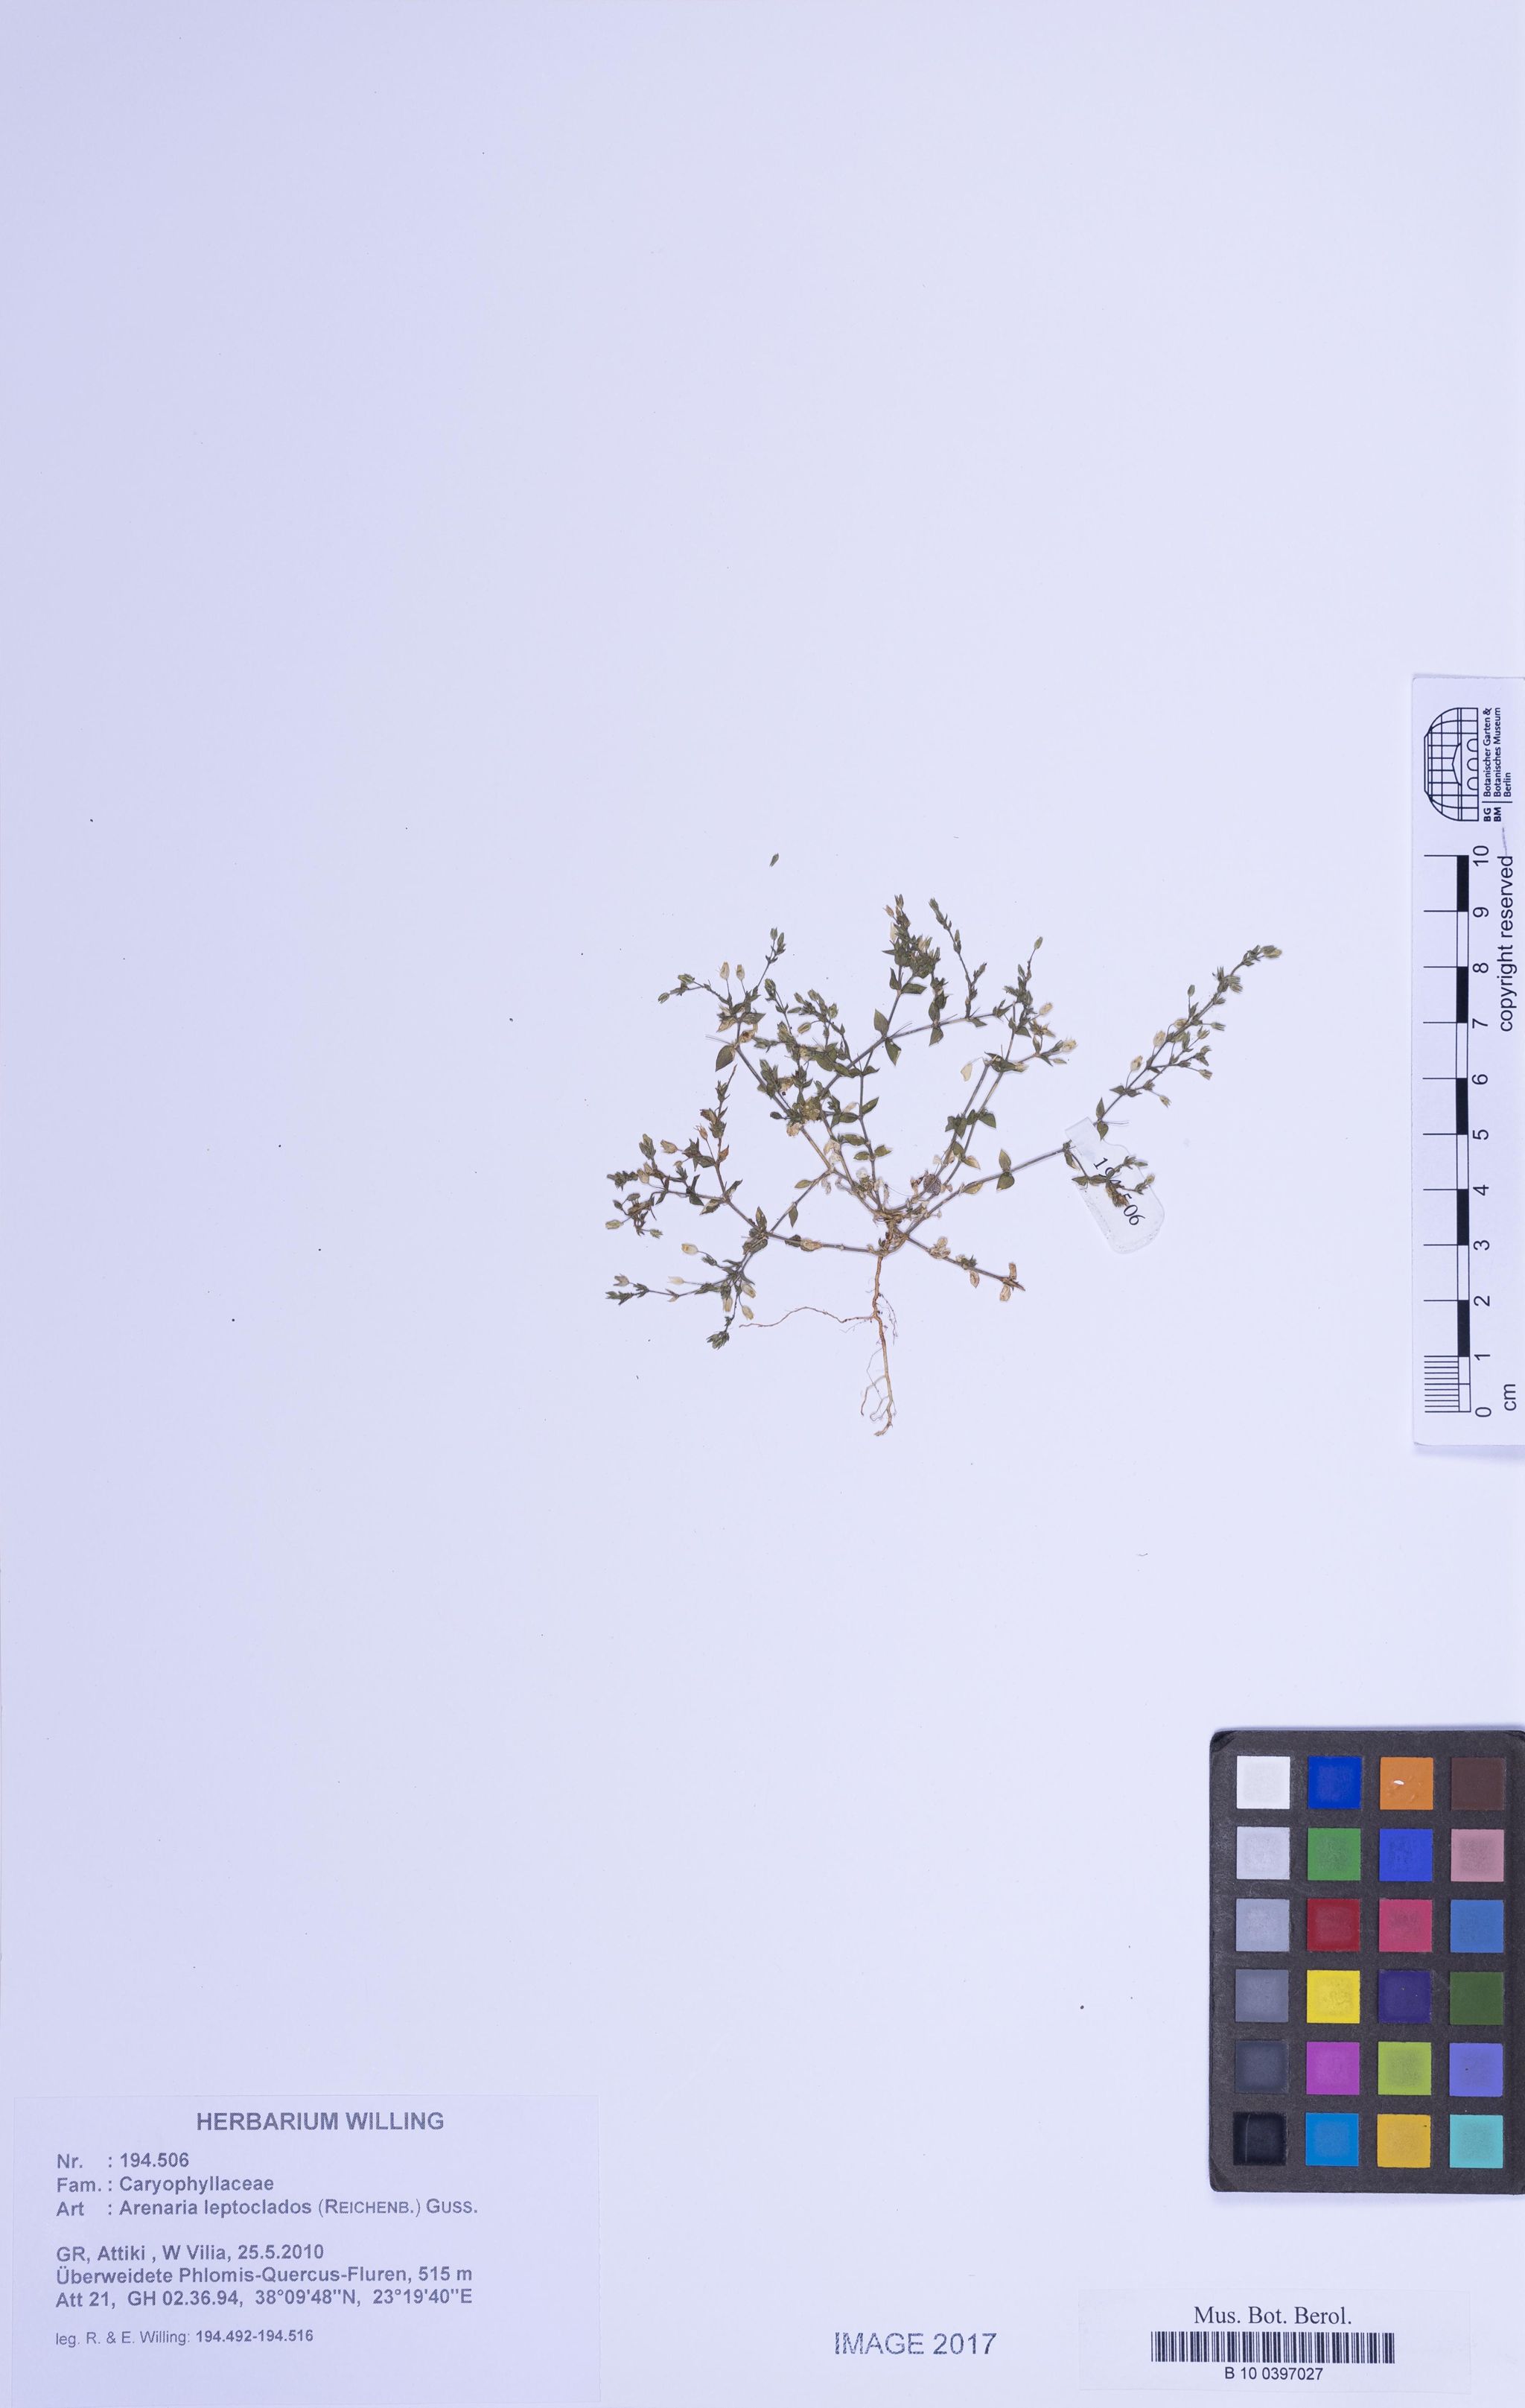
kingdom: Plantae
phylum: Tracheophyta
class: Magnoliopsida
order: Caryophyllales
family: Caryophyllaceae
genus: Arenaria
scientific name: Arenaria leptoclados
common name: Thyme-leaved sandwort
